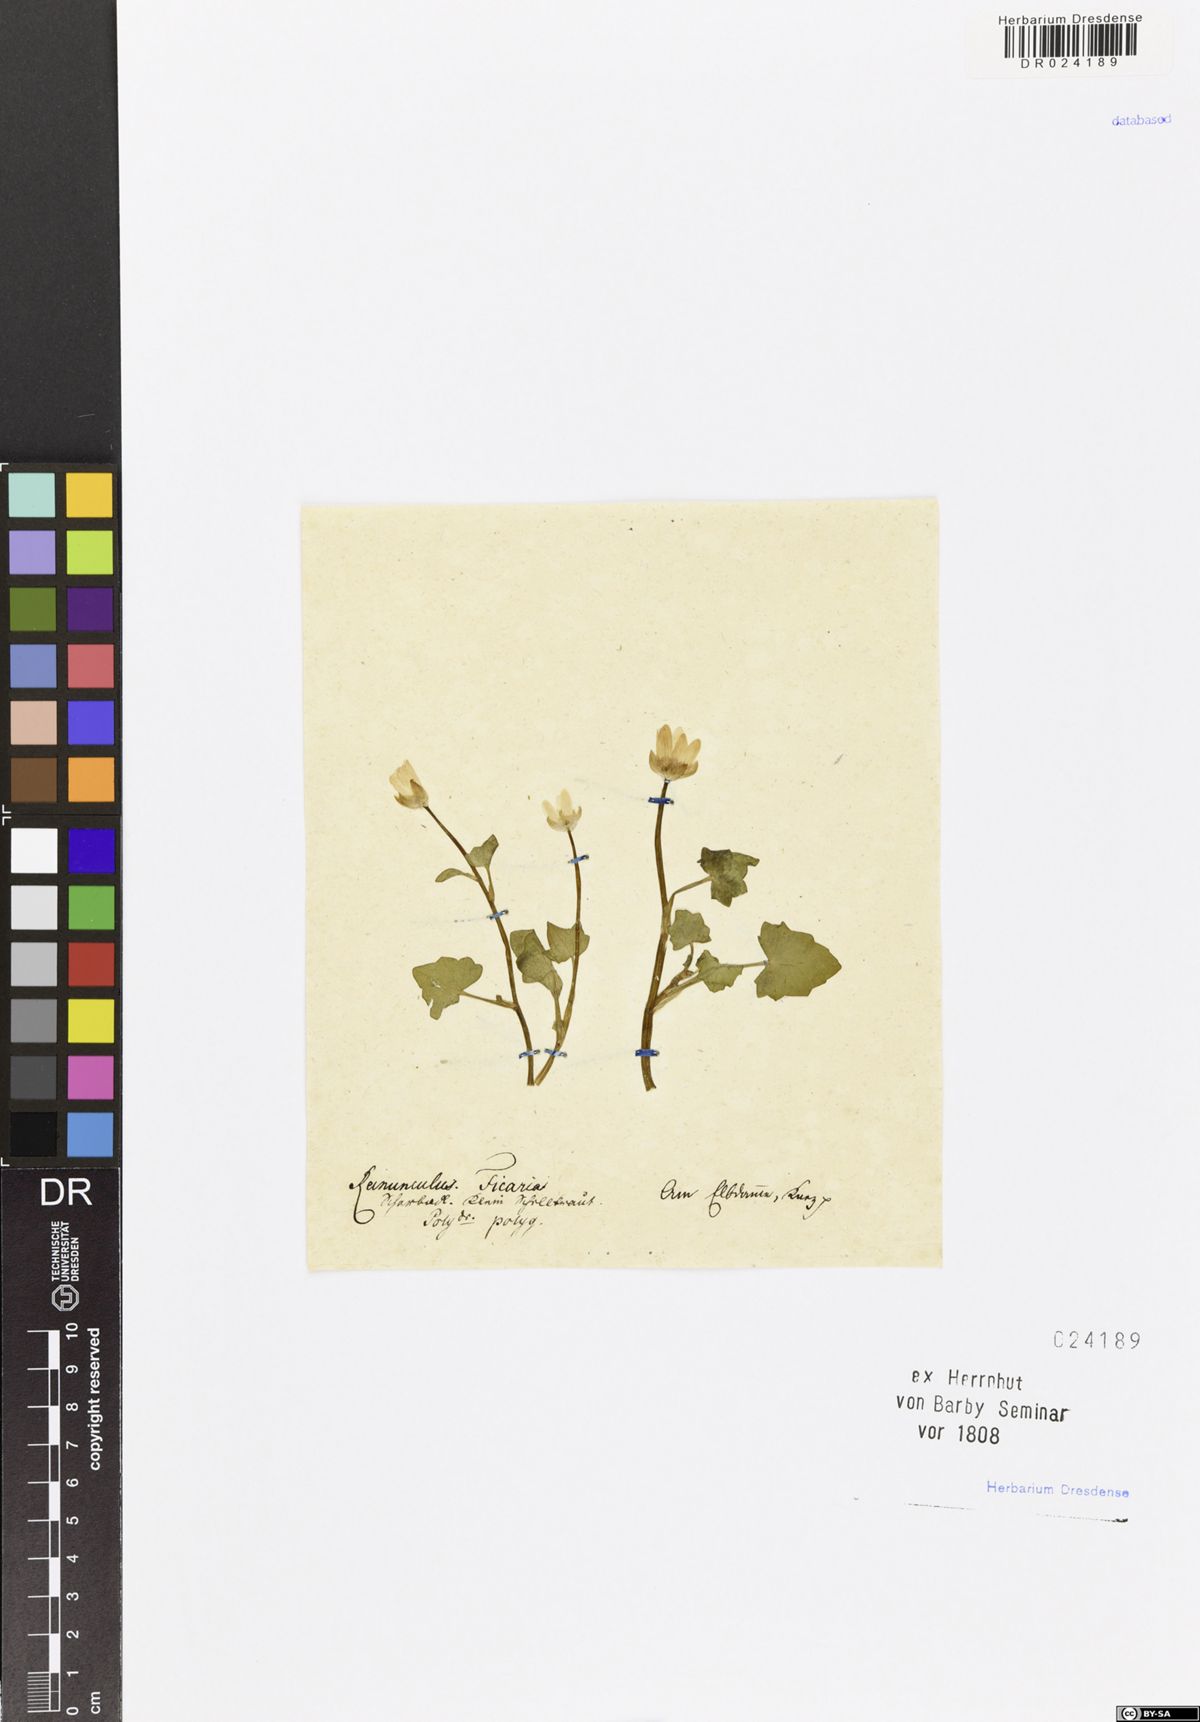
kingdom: Plantae
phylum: Tracheophyta
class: Magnoliopsida
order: Ranunculales
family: Ranunculaceae
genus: Ficaria
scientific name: Ficaria verna
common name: Lesser celandine
